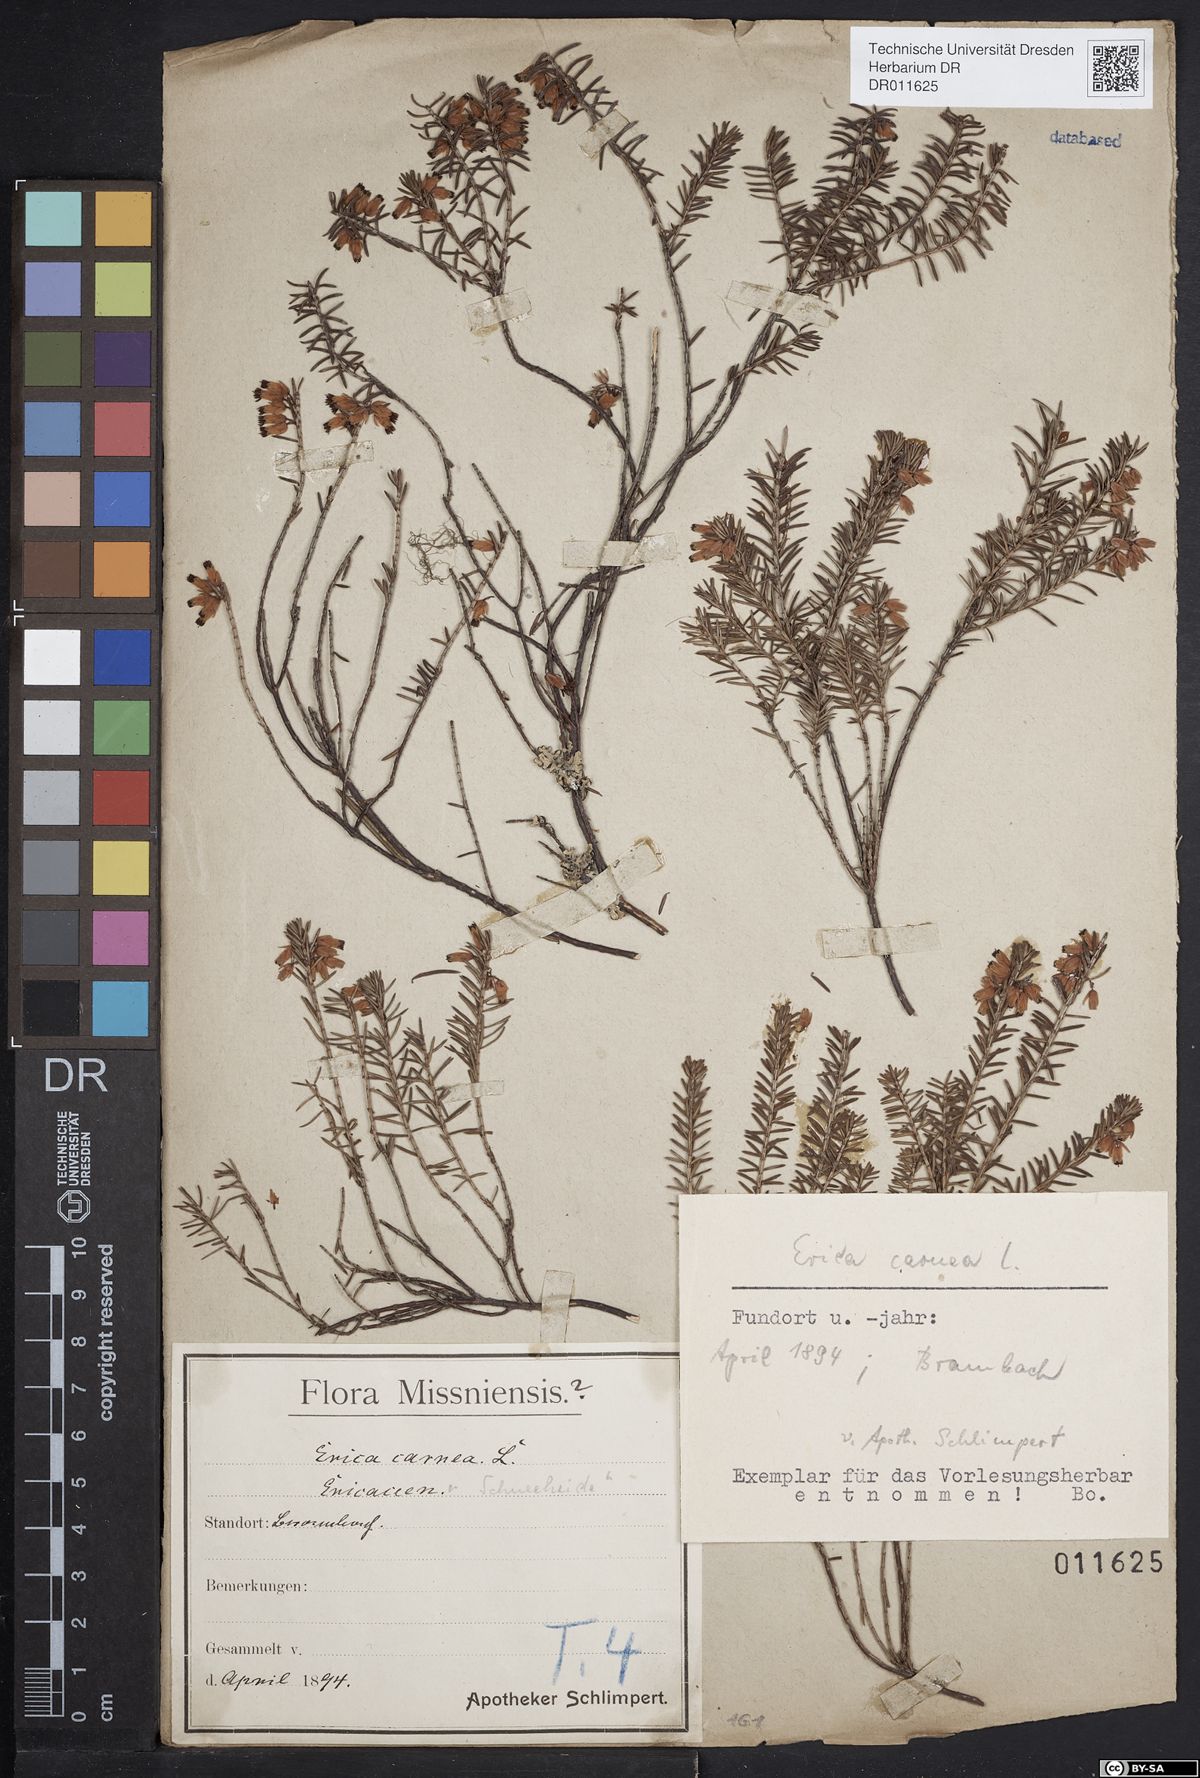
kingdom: Plantae
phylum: Tracheophyta
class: Magnoliopsida
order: Ericales
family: Ericaceae
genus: Erica
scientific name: Erica carnea
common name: Winter heath
